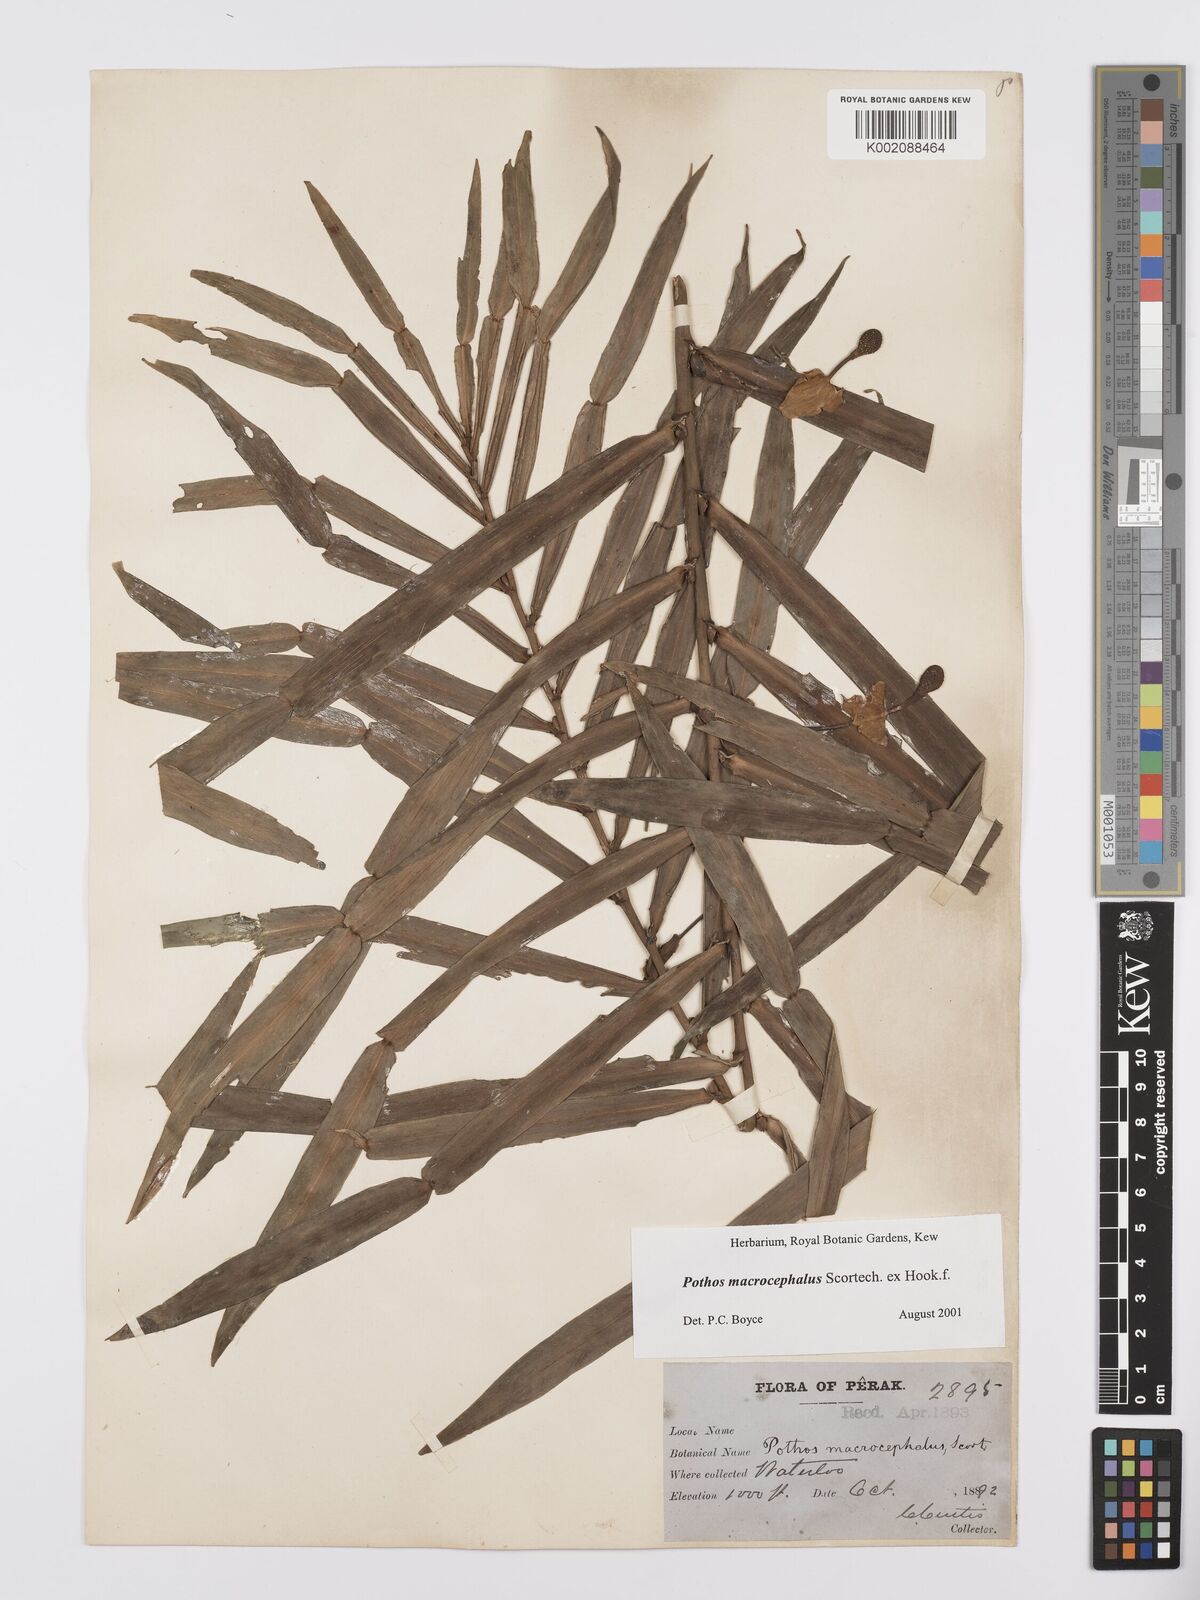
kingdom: Plantae
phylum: Tracheophyta
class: Liliopsida
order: Alismatales
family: Araceae
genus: Pothos
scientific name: Pothos macrocephalus
